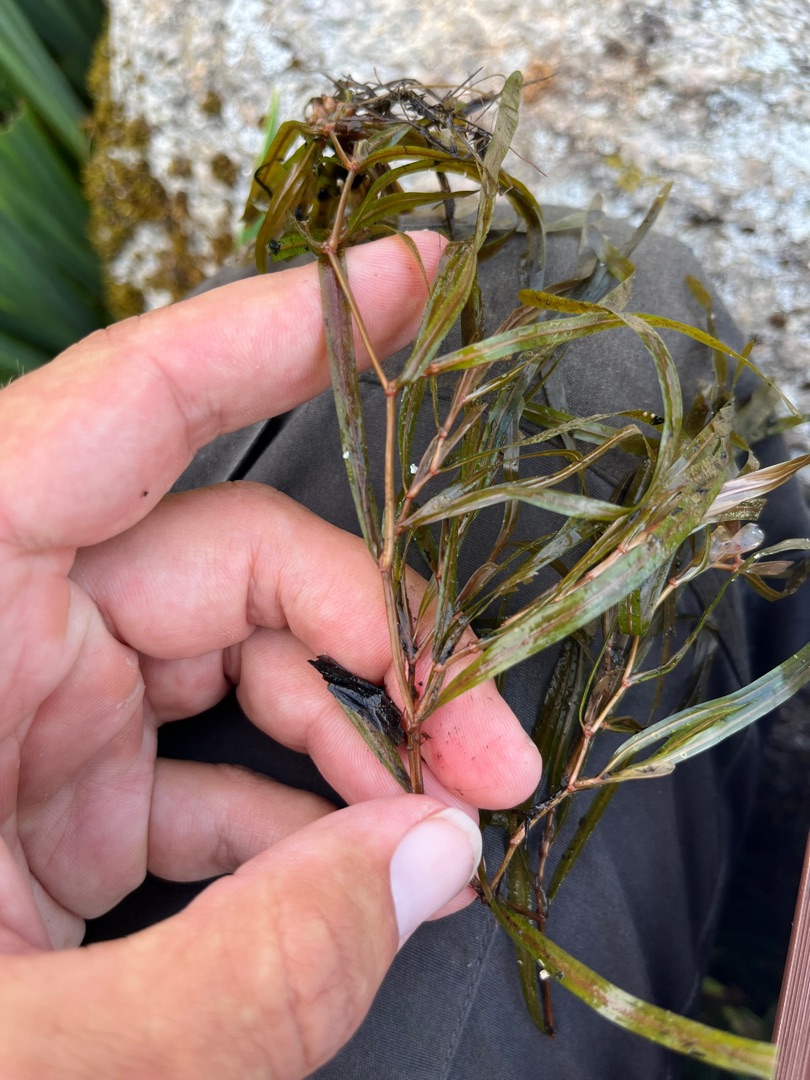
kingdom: Plantae
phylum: Tracheophyta
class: Liliopsida
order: Alismatales
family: Potamogetonaceae
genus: Potamogeton
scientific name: Potamogeton obtusifolius
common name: Butbladet vandaks
